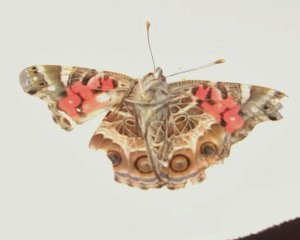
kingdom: Animalia
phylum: Arthropoda
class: Insecta
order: Lepidoptera
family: Nymphalidae
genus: Vanessa
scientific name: Vanessa virginiensis
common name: American Lady
